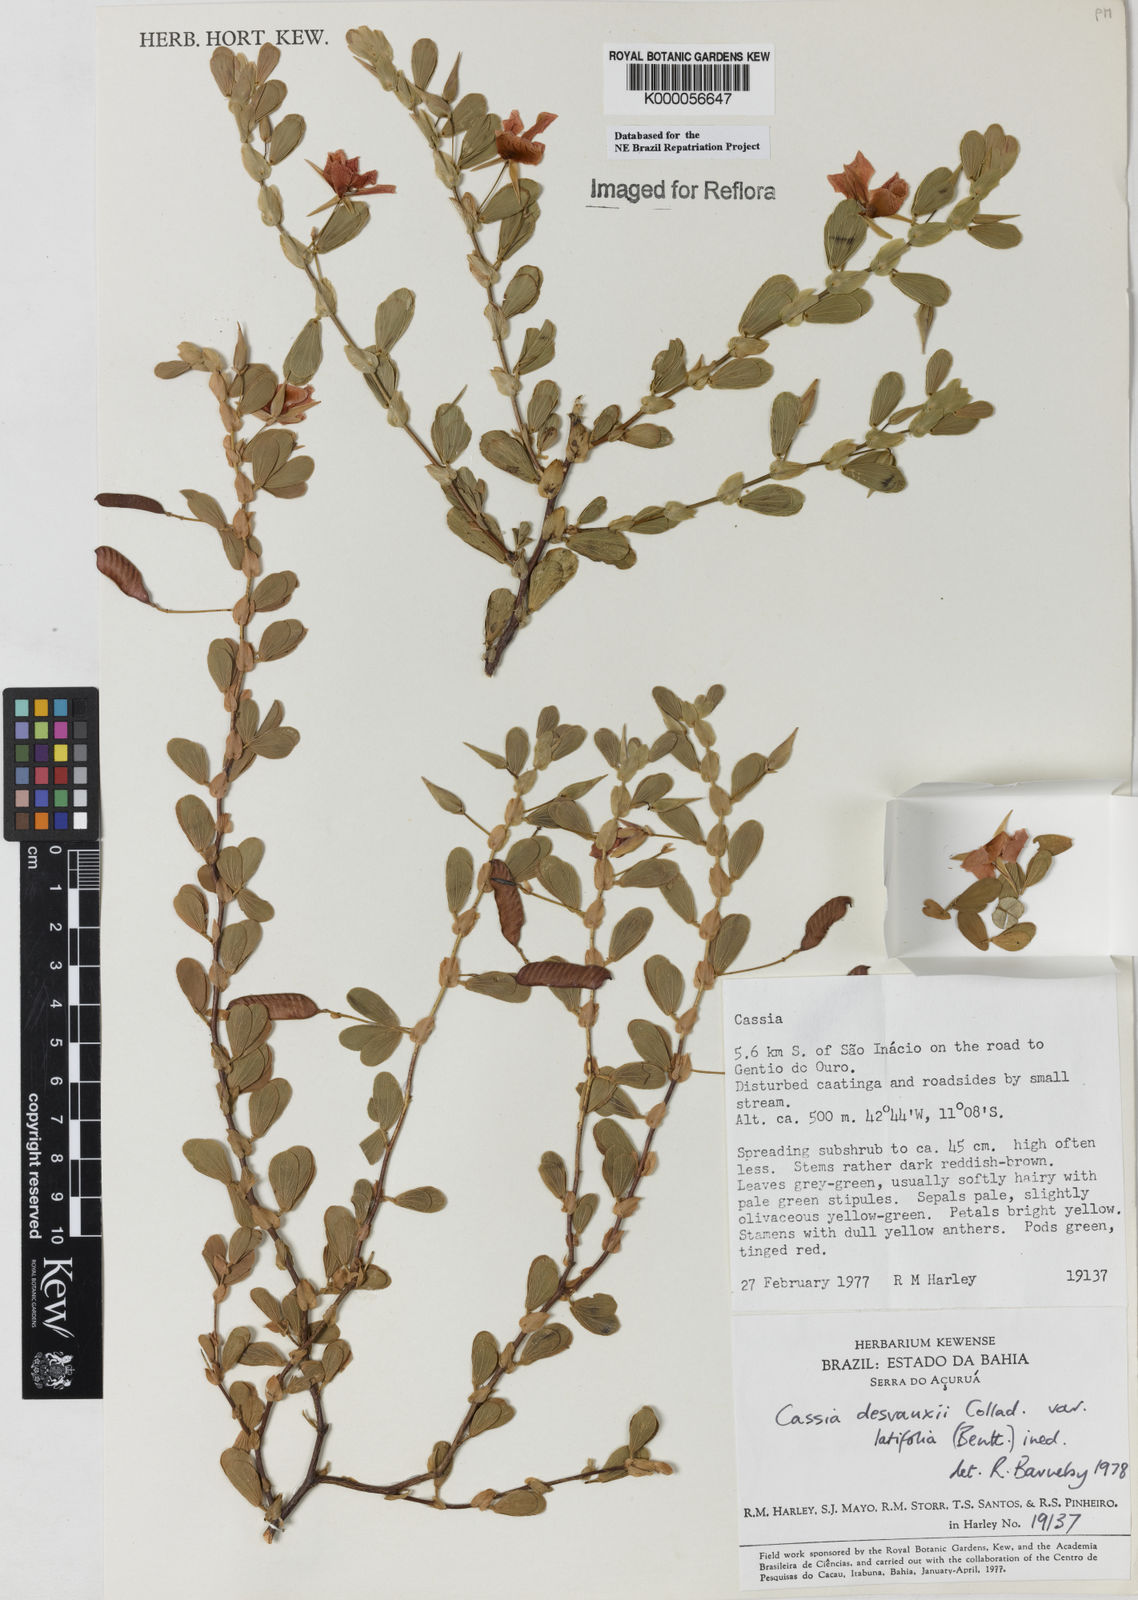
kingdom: Plantae
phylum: Tracheophyta
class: Magnoliopsida
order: Fabales
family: Fabaceae
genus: Chamaecrista
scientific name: Chamaecrista desvauxii
